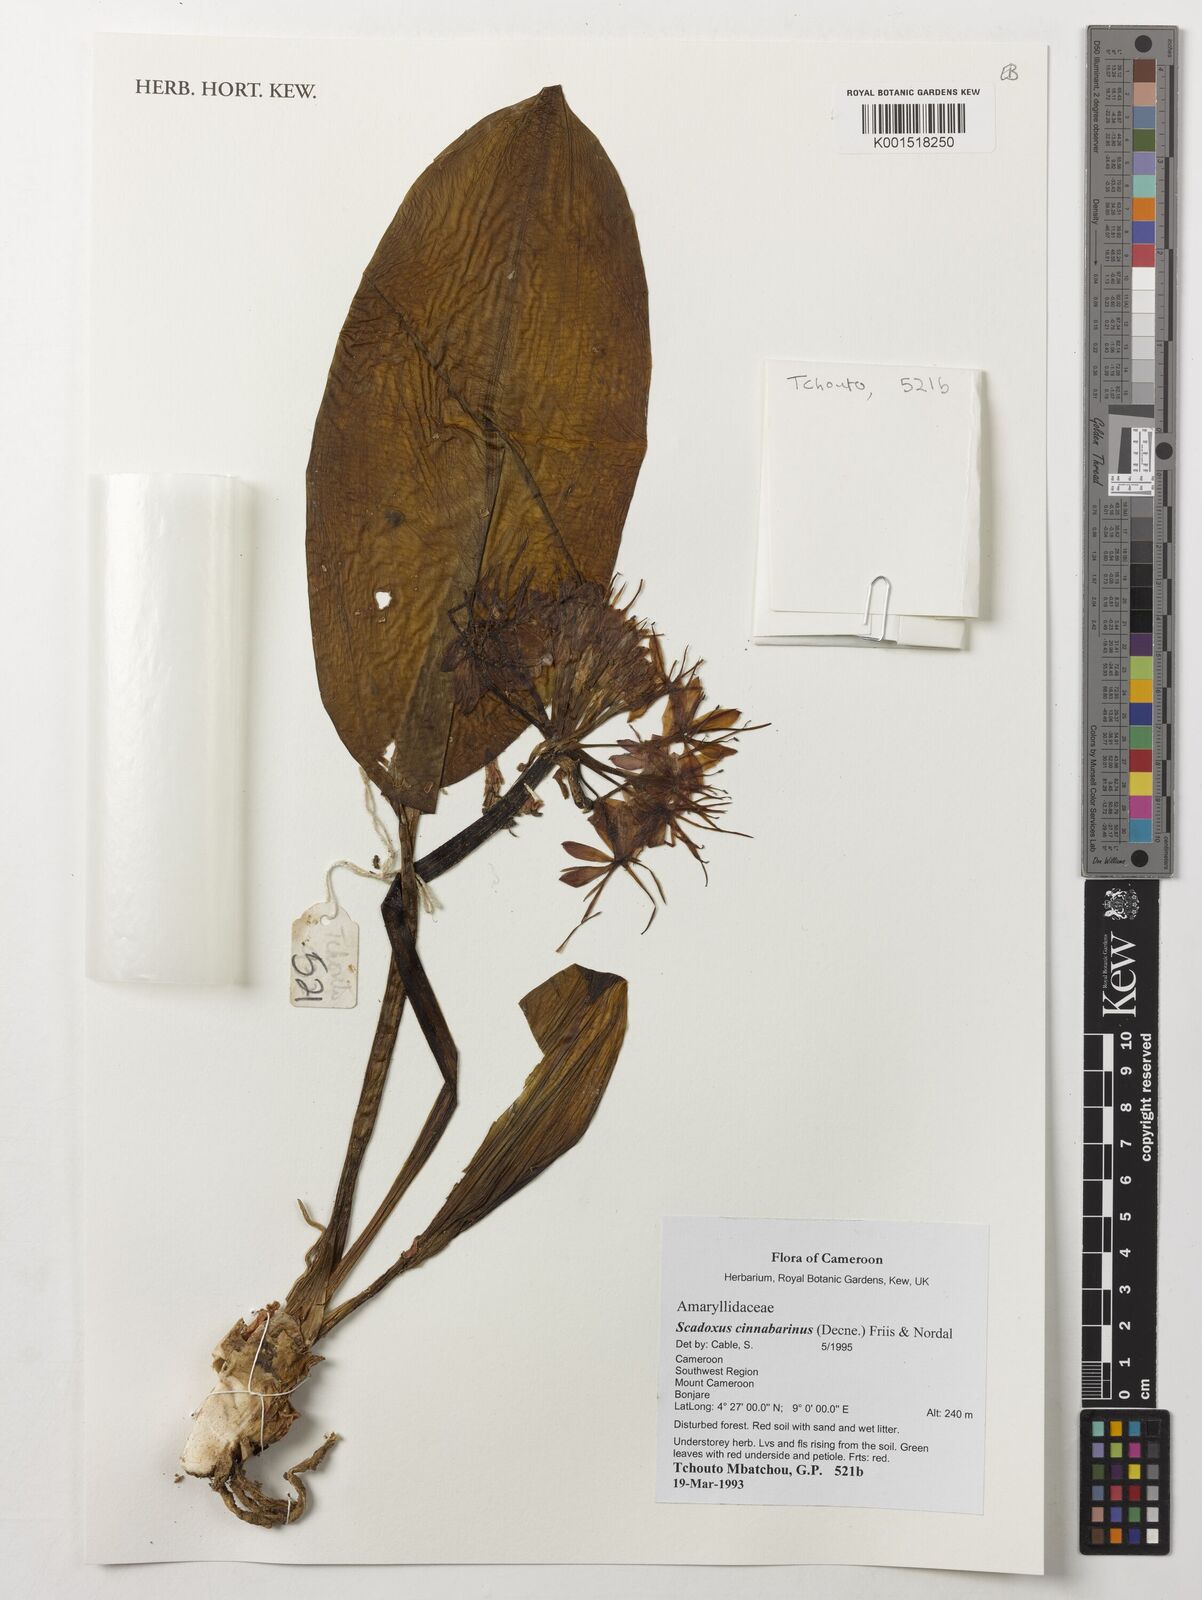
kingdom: Plantae
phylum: Tracheophyta
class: Liliopsida
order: Asparagales
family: Amaryllidaceae
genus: Scadoxus
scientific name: Scadoxus cinnabarinus
